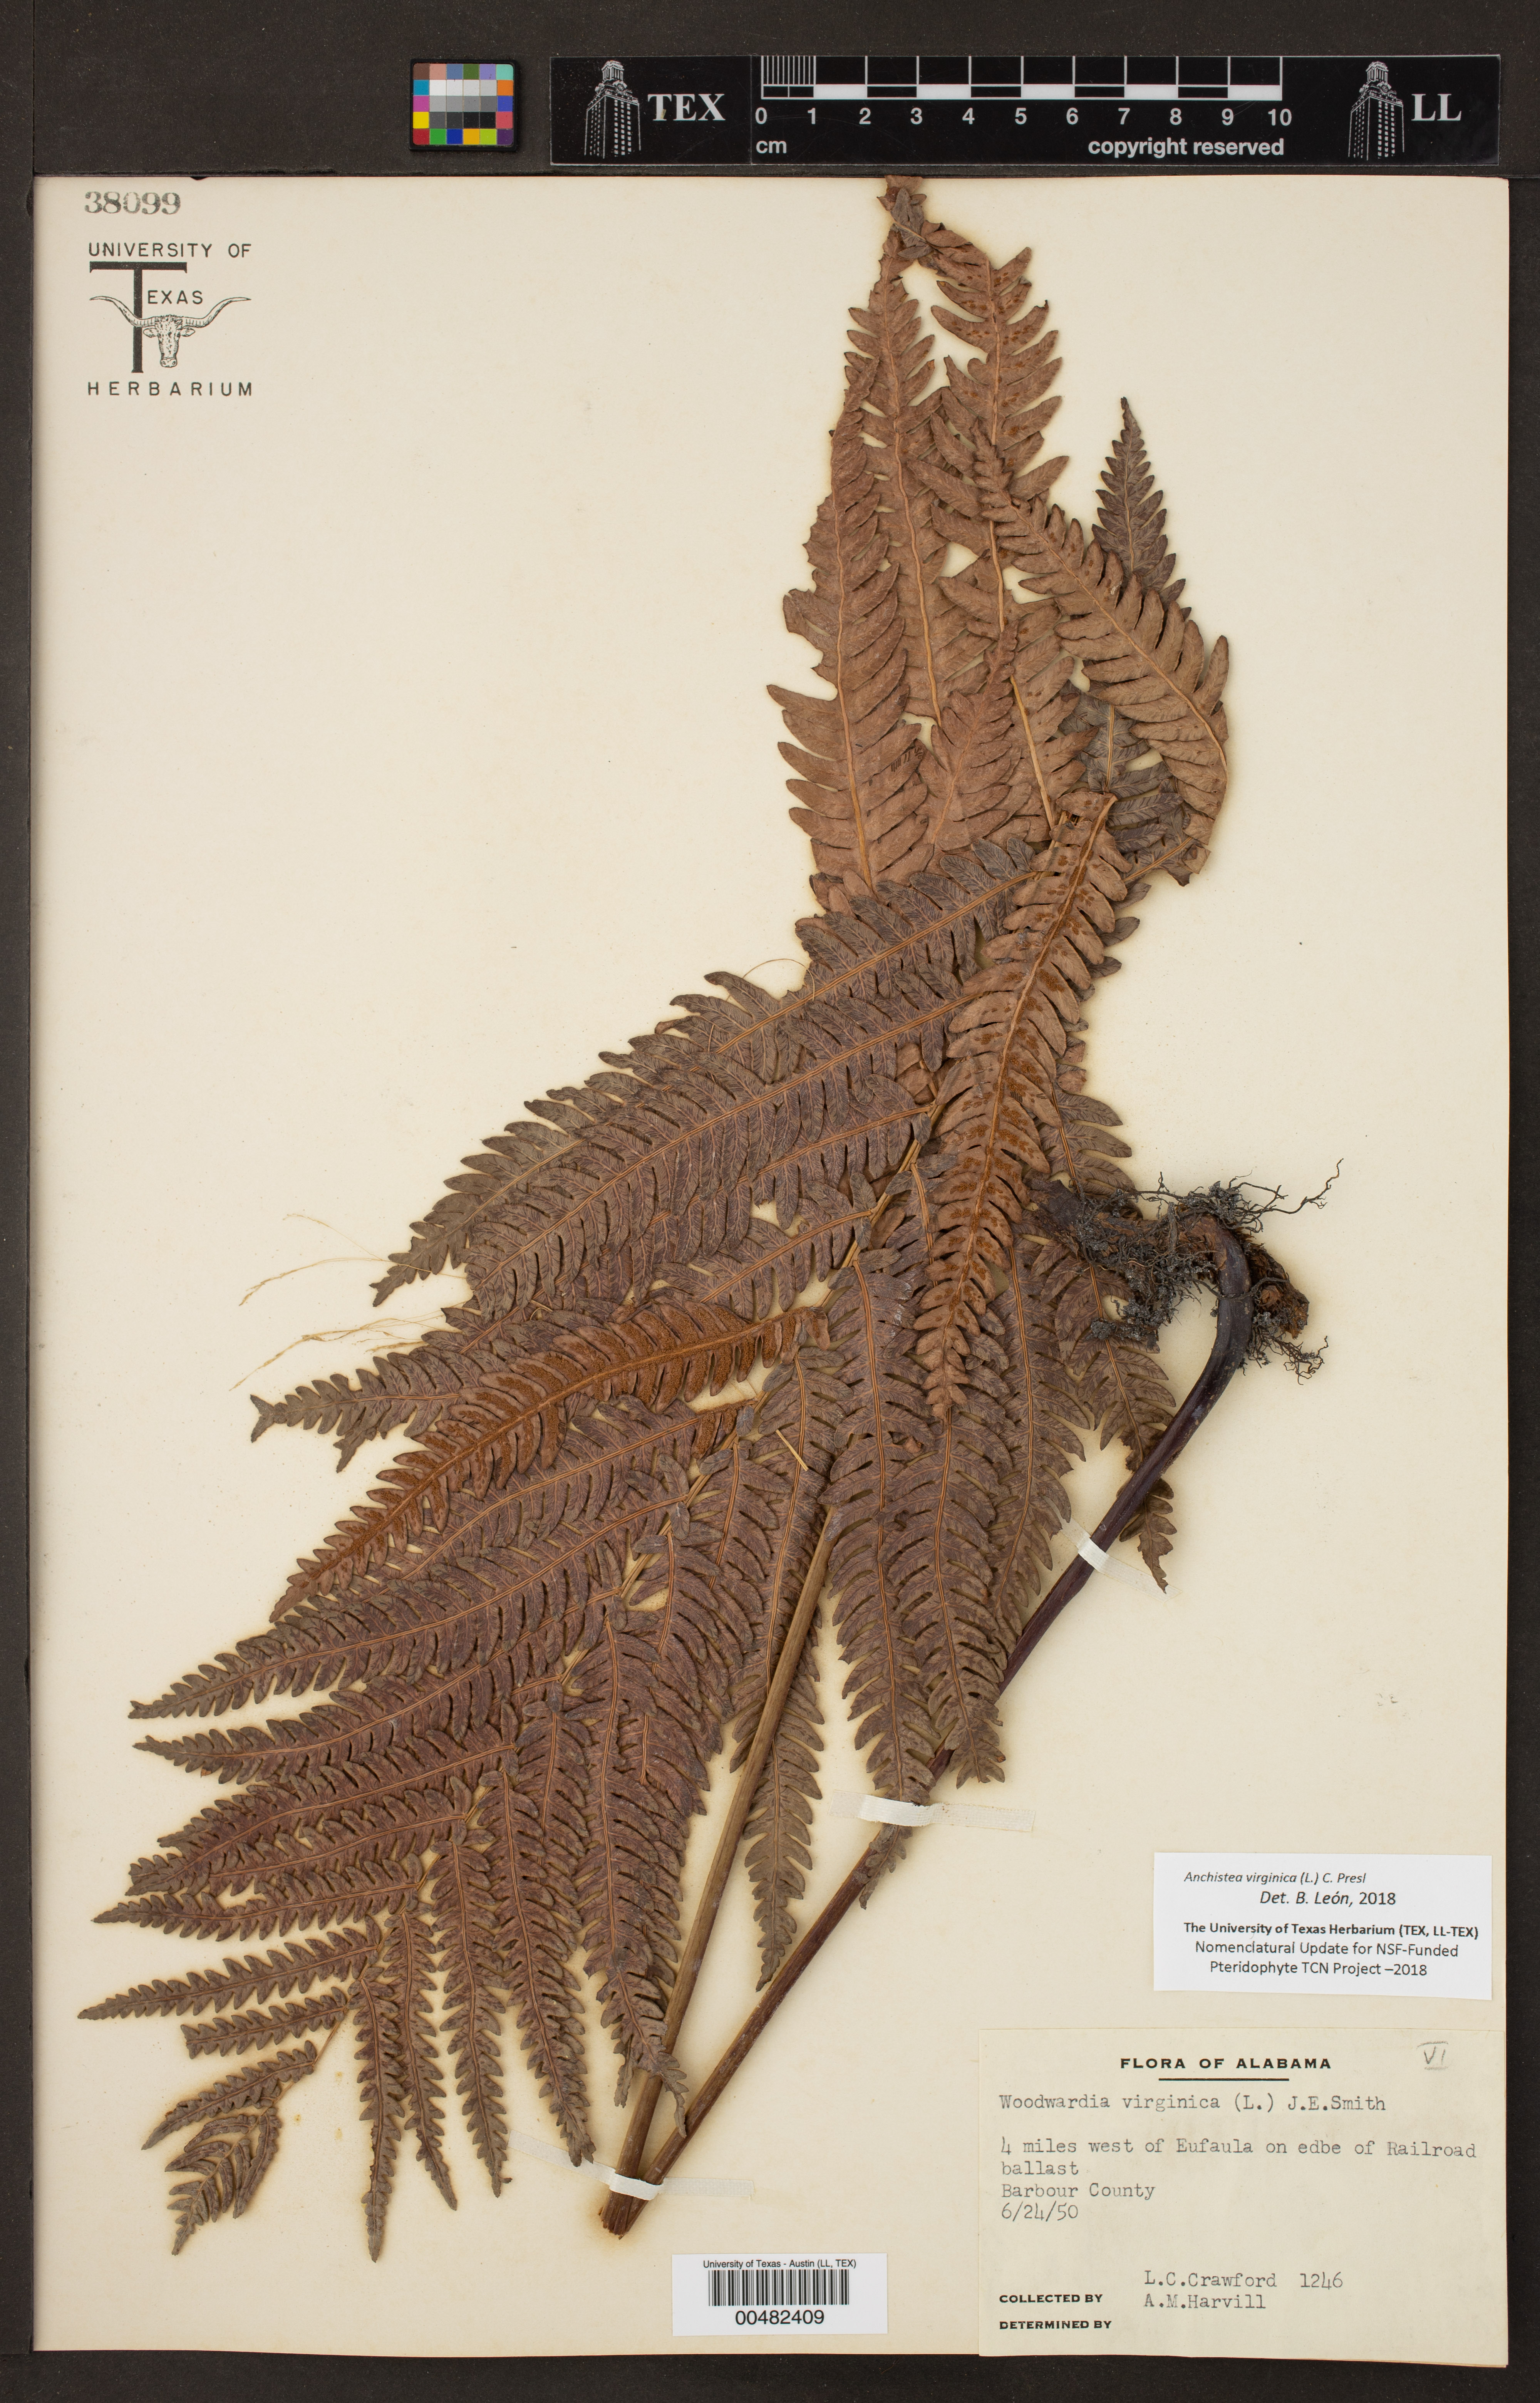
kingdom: Plantae
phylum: Tracheophyta
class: Polypodiopsida
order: Polypodiales
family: Blechnaceae
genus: Anchistea
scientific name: Anchistea virginica
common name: Virginia chain fern
